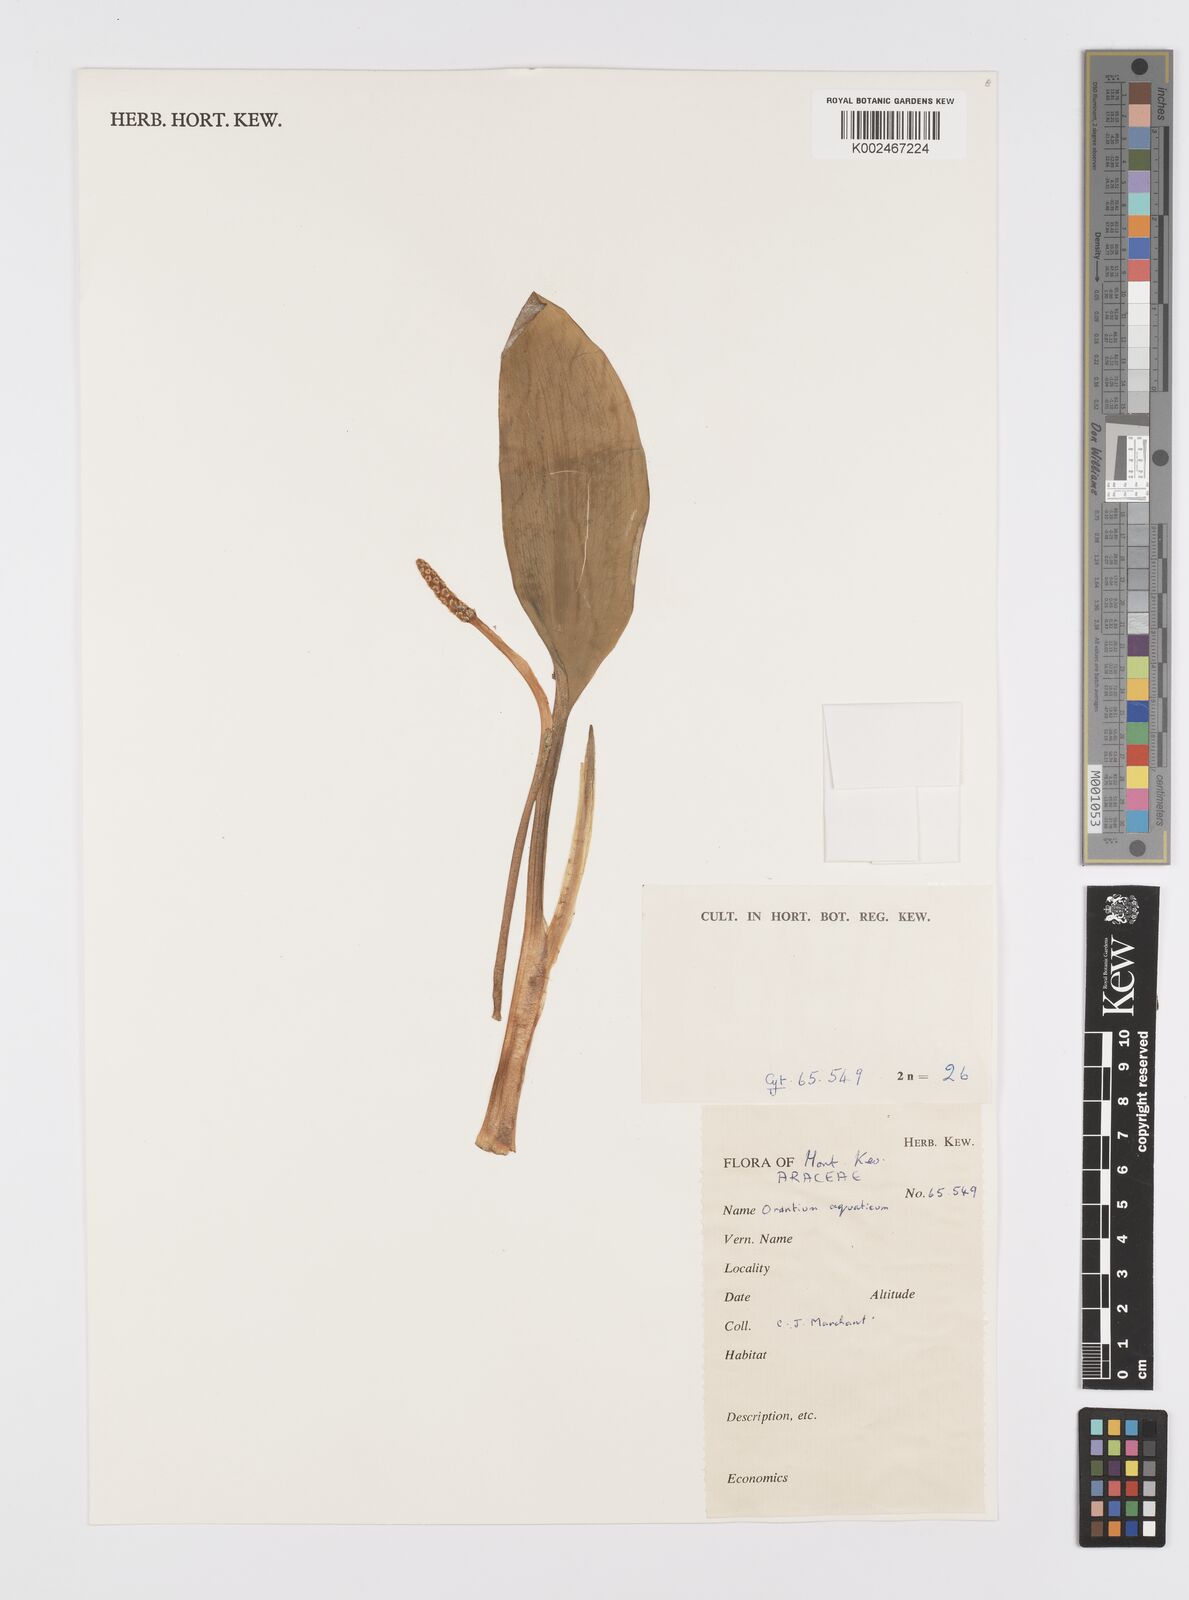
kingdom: Plantae
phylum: Tracheophyta
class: Liliopsida
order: Alismatales
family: Araceae
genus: Orontium
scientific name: Orontium aquaticum
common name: Golden-club
